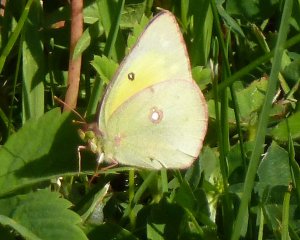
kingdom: Animalia
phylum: Arthropoda
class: Insecta
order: Lepidoptera
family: Pieridae
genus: Colias
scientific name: Colias philodice
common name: Clouded Sulphur
